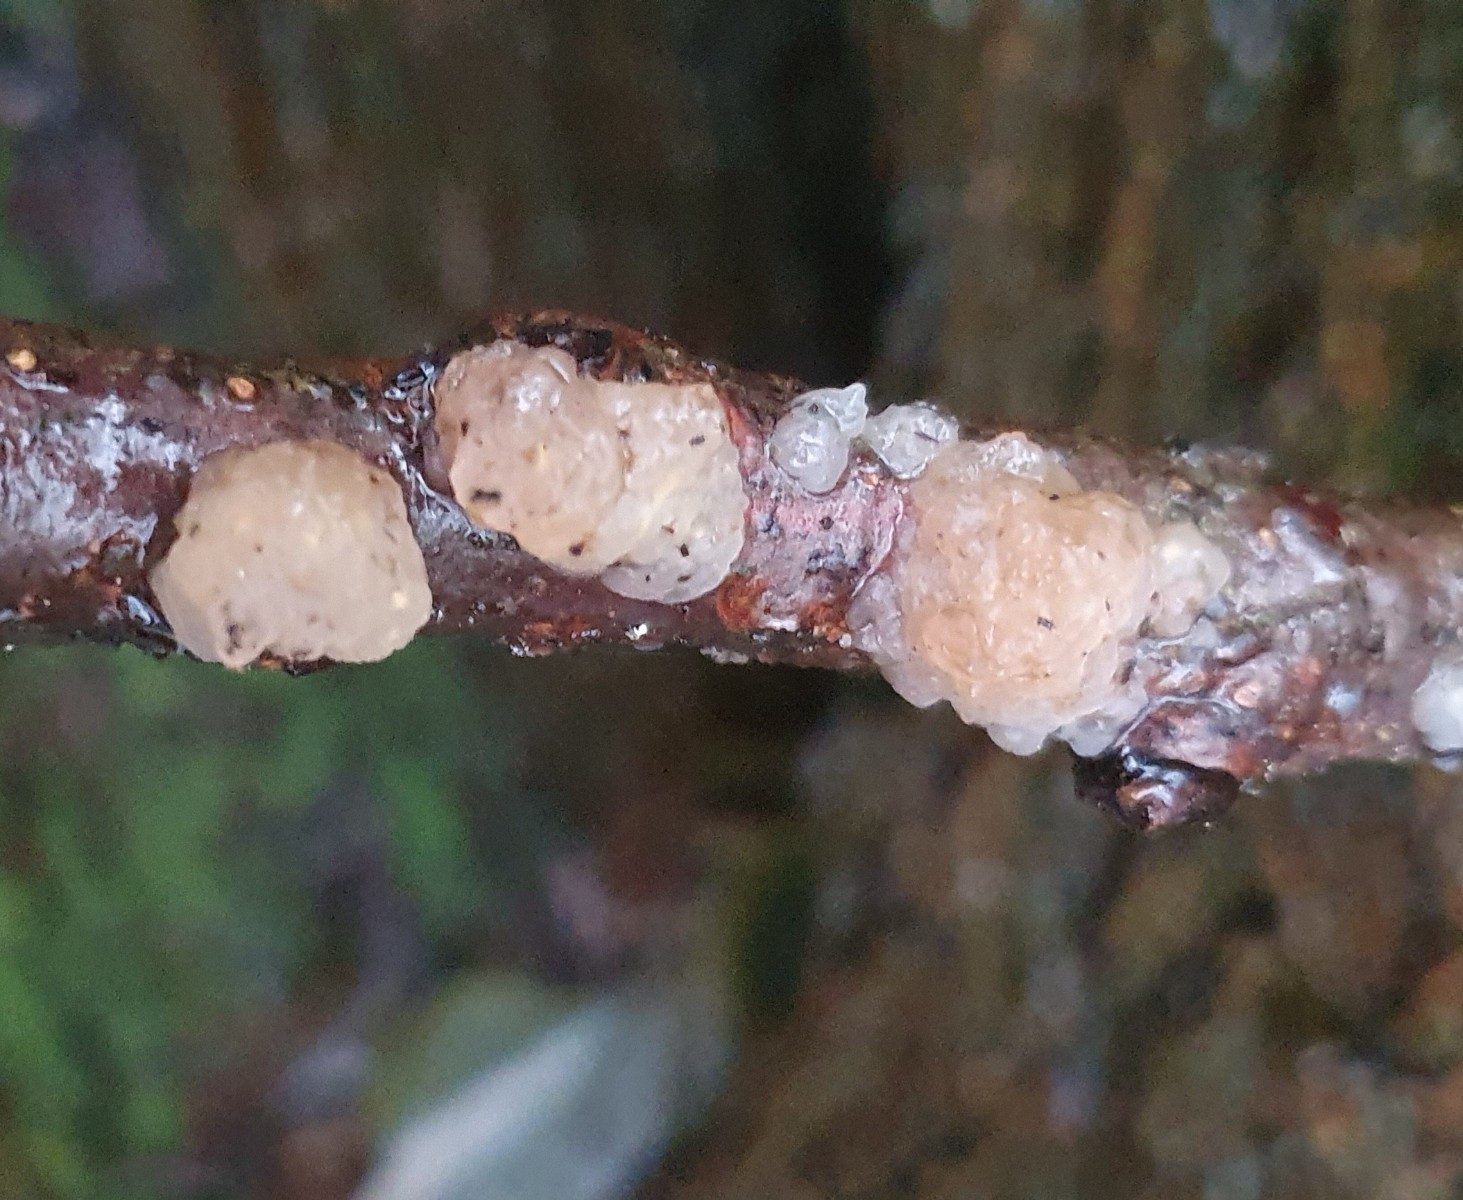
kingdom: Fungi
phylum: Basidiomycota
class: Agaricomycetes
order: Auriculariales
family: Hyaloriaceae
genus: Myxarium
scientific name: Myxarium nucleatum
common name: klar bævretop
